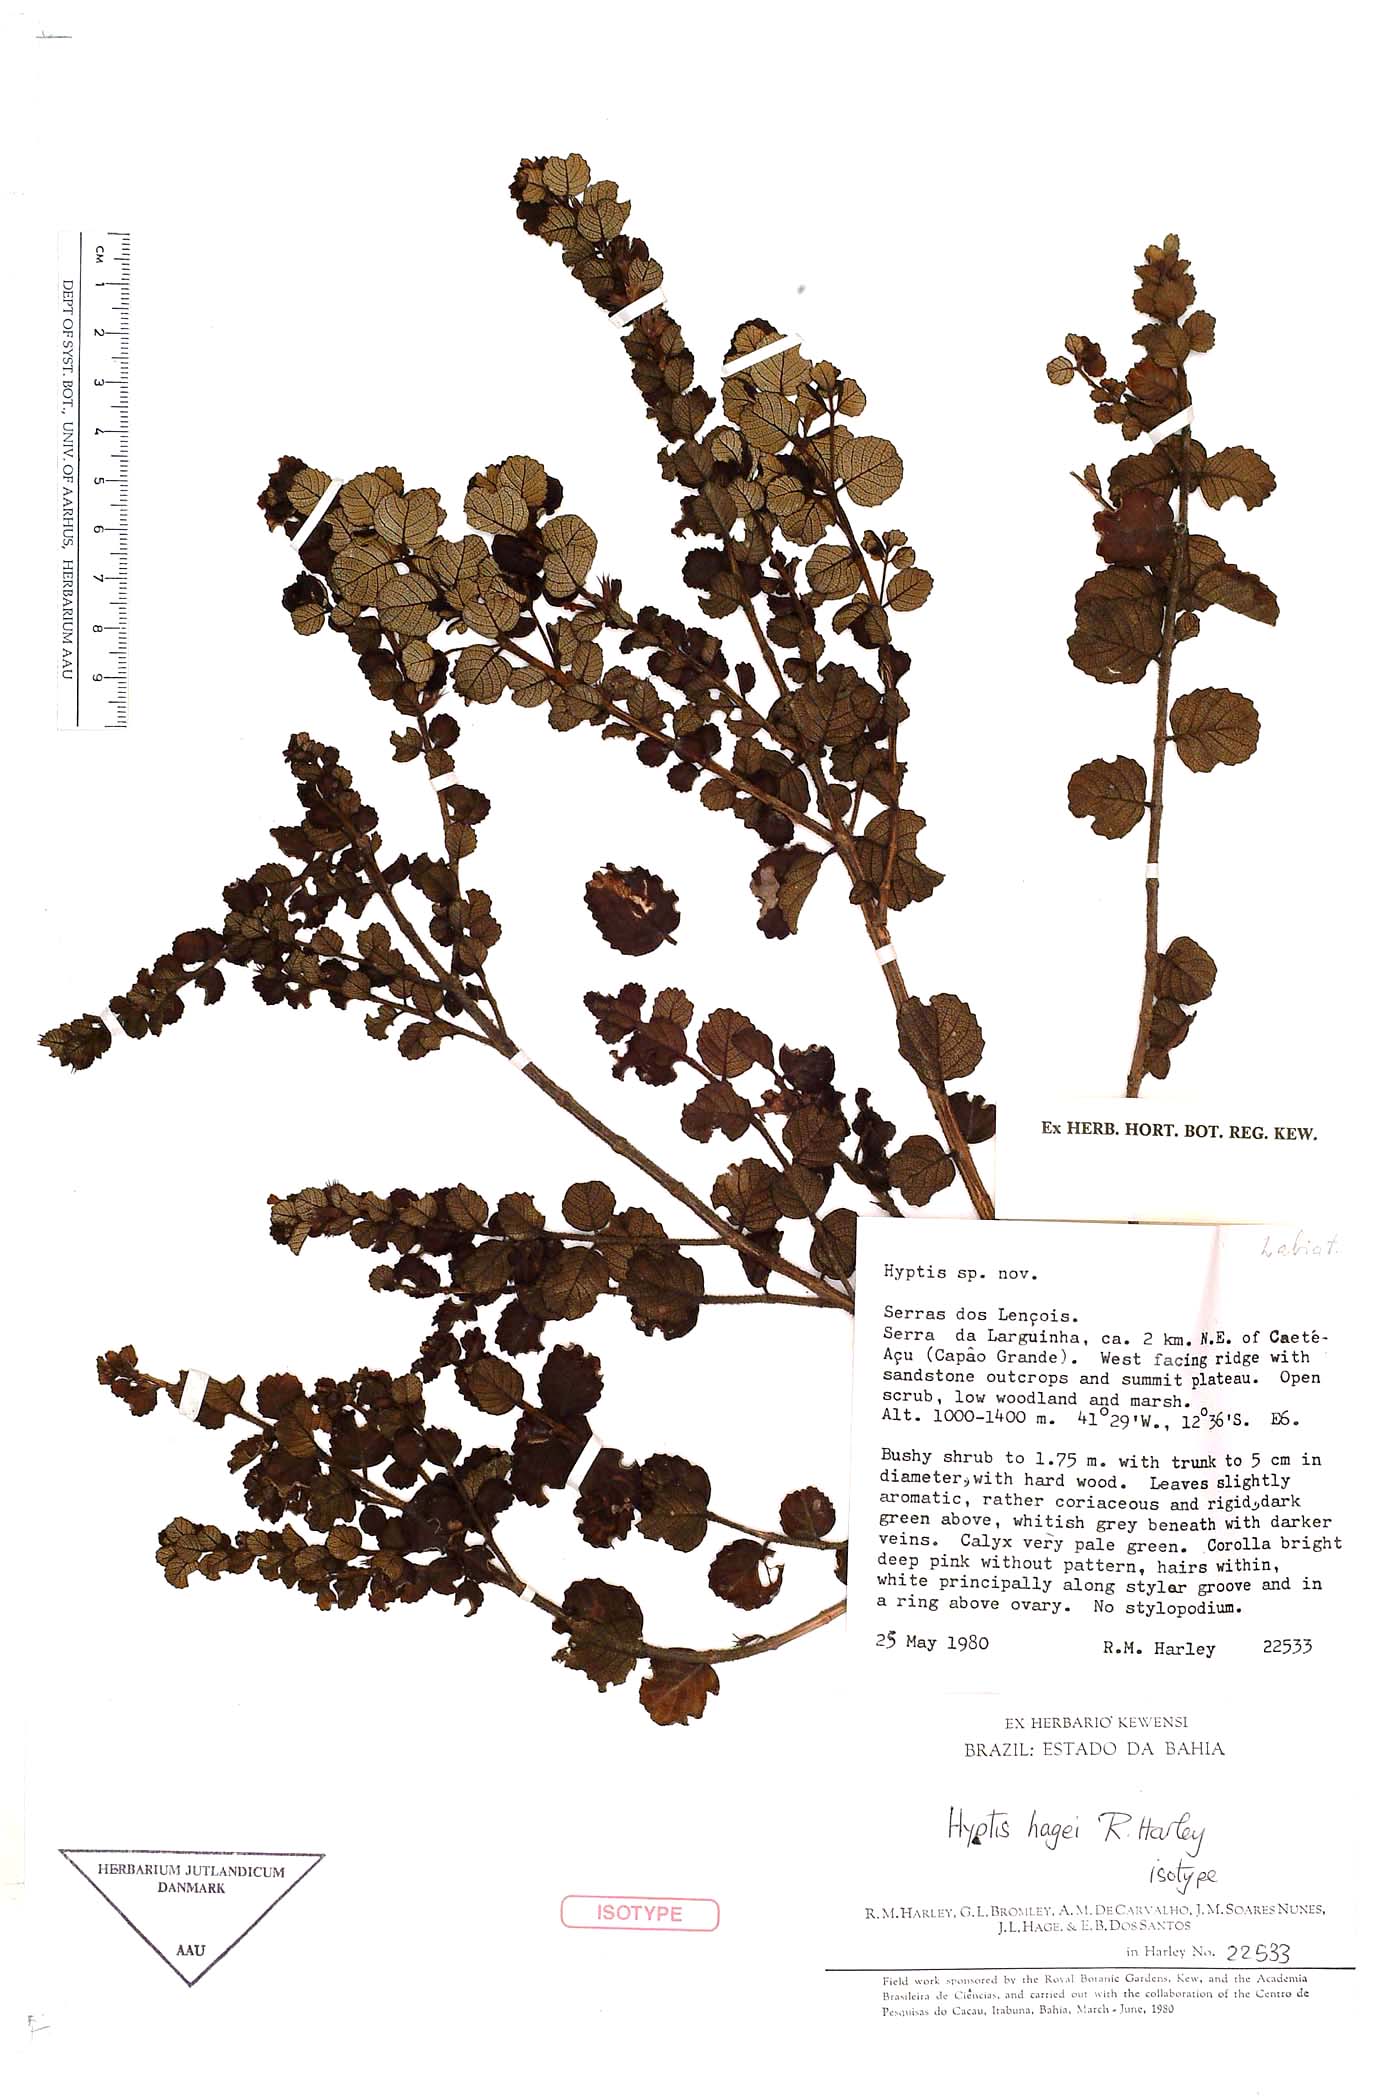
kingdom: Plantae
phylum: Tracheophyta
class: Magnoliopsida
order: Lamiales
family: Lamiaceae
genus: Oocephalus
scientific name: Oocephalus hagei
